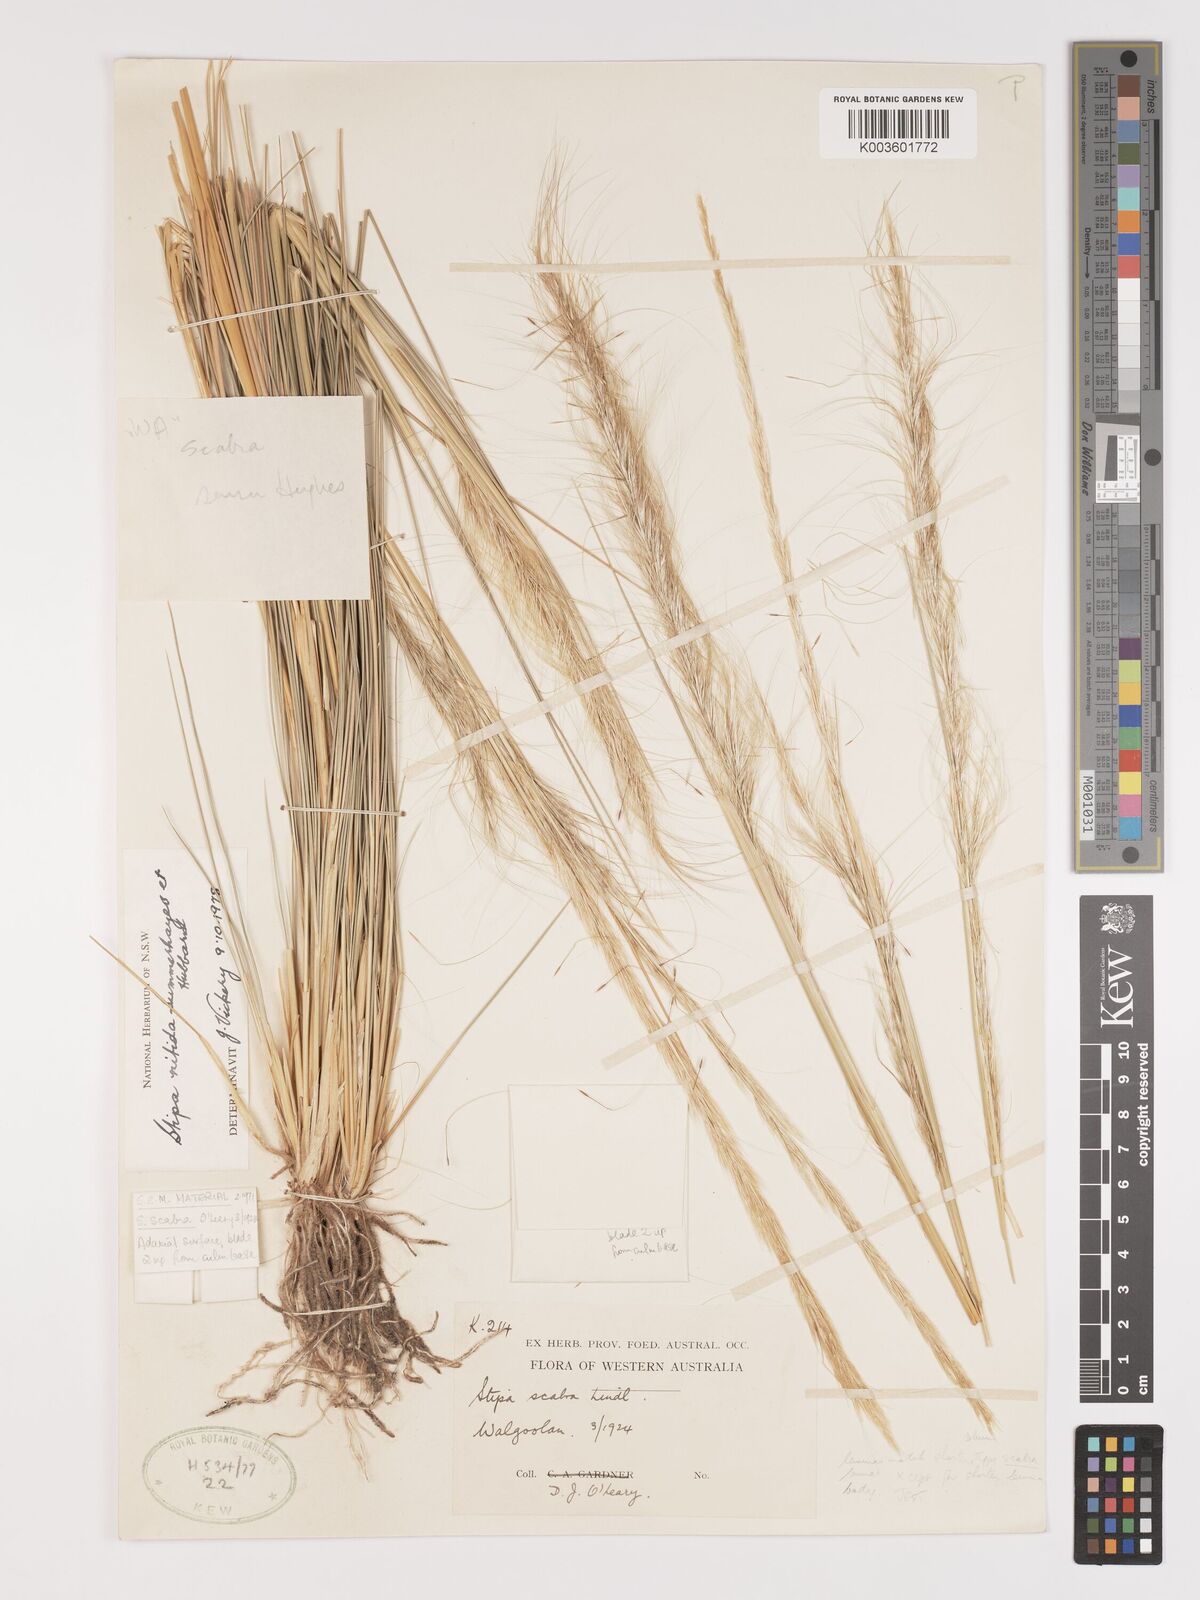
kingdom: Plantae
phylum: Tracheophyta
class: Liliopsida
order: Poales
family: Poaceae
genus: Austrostipa
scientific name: Austrostipa nitida
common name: Balcarra grass
